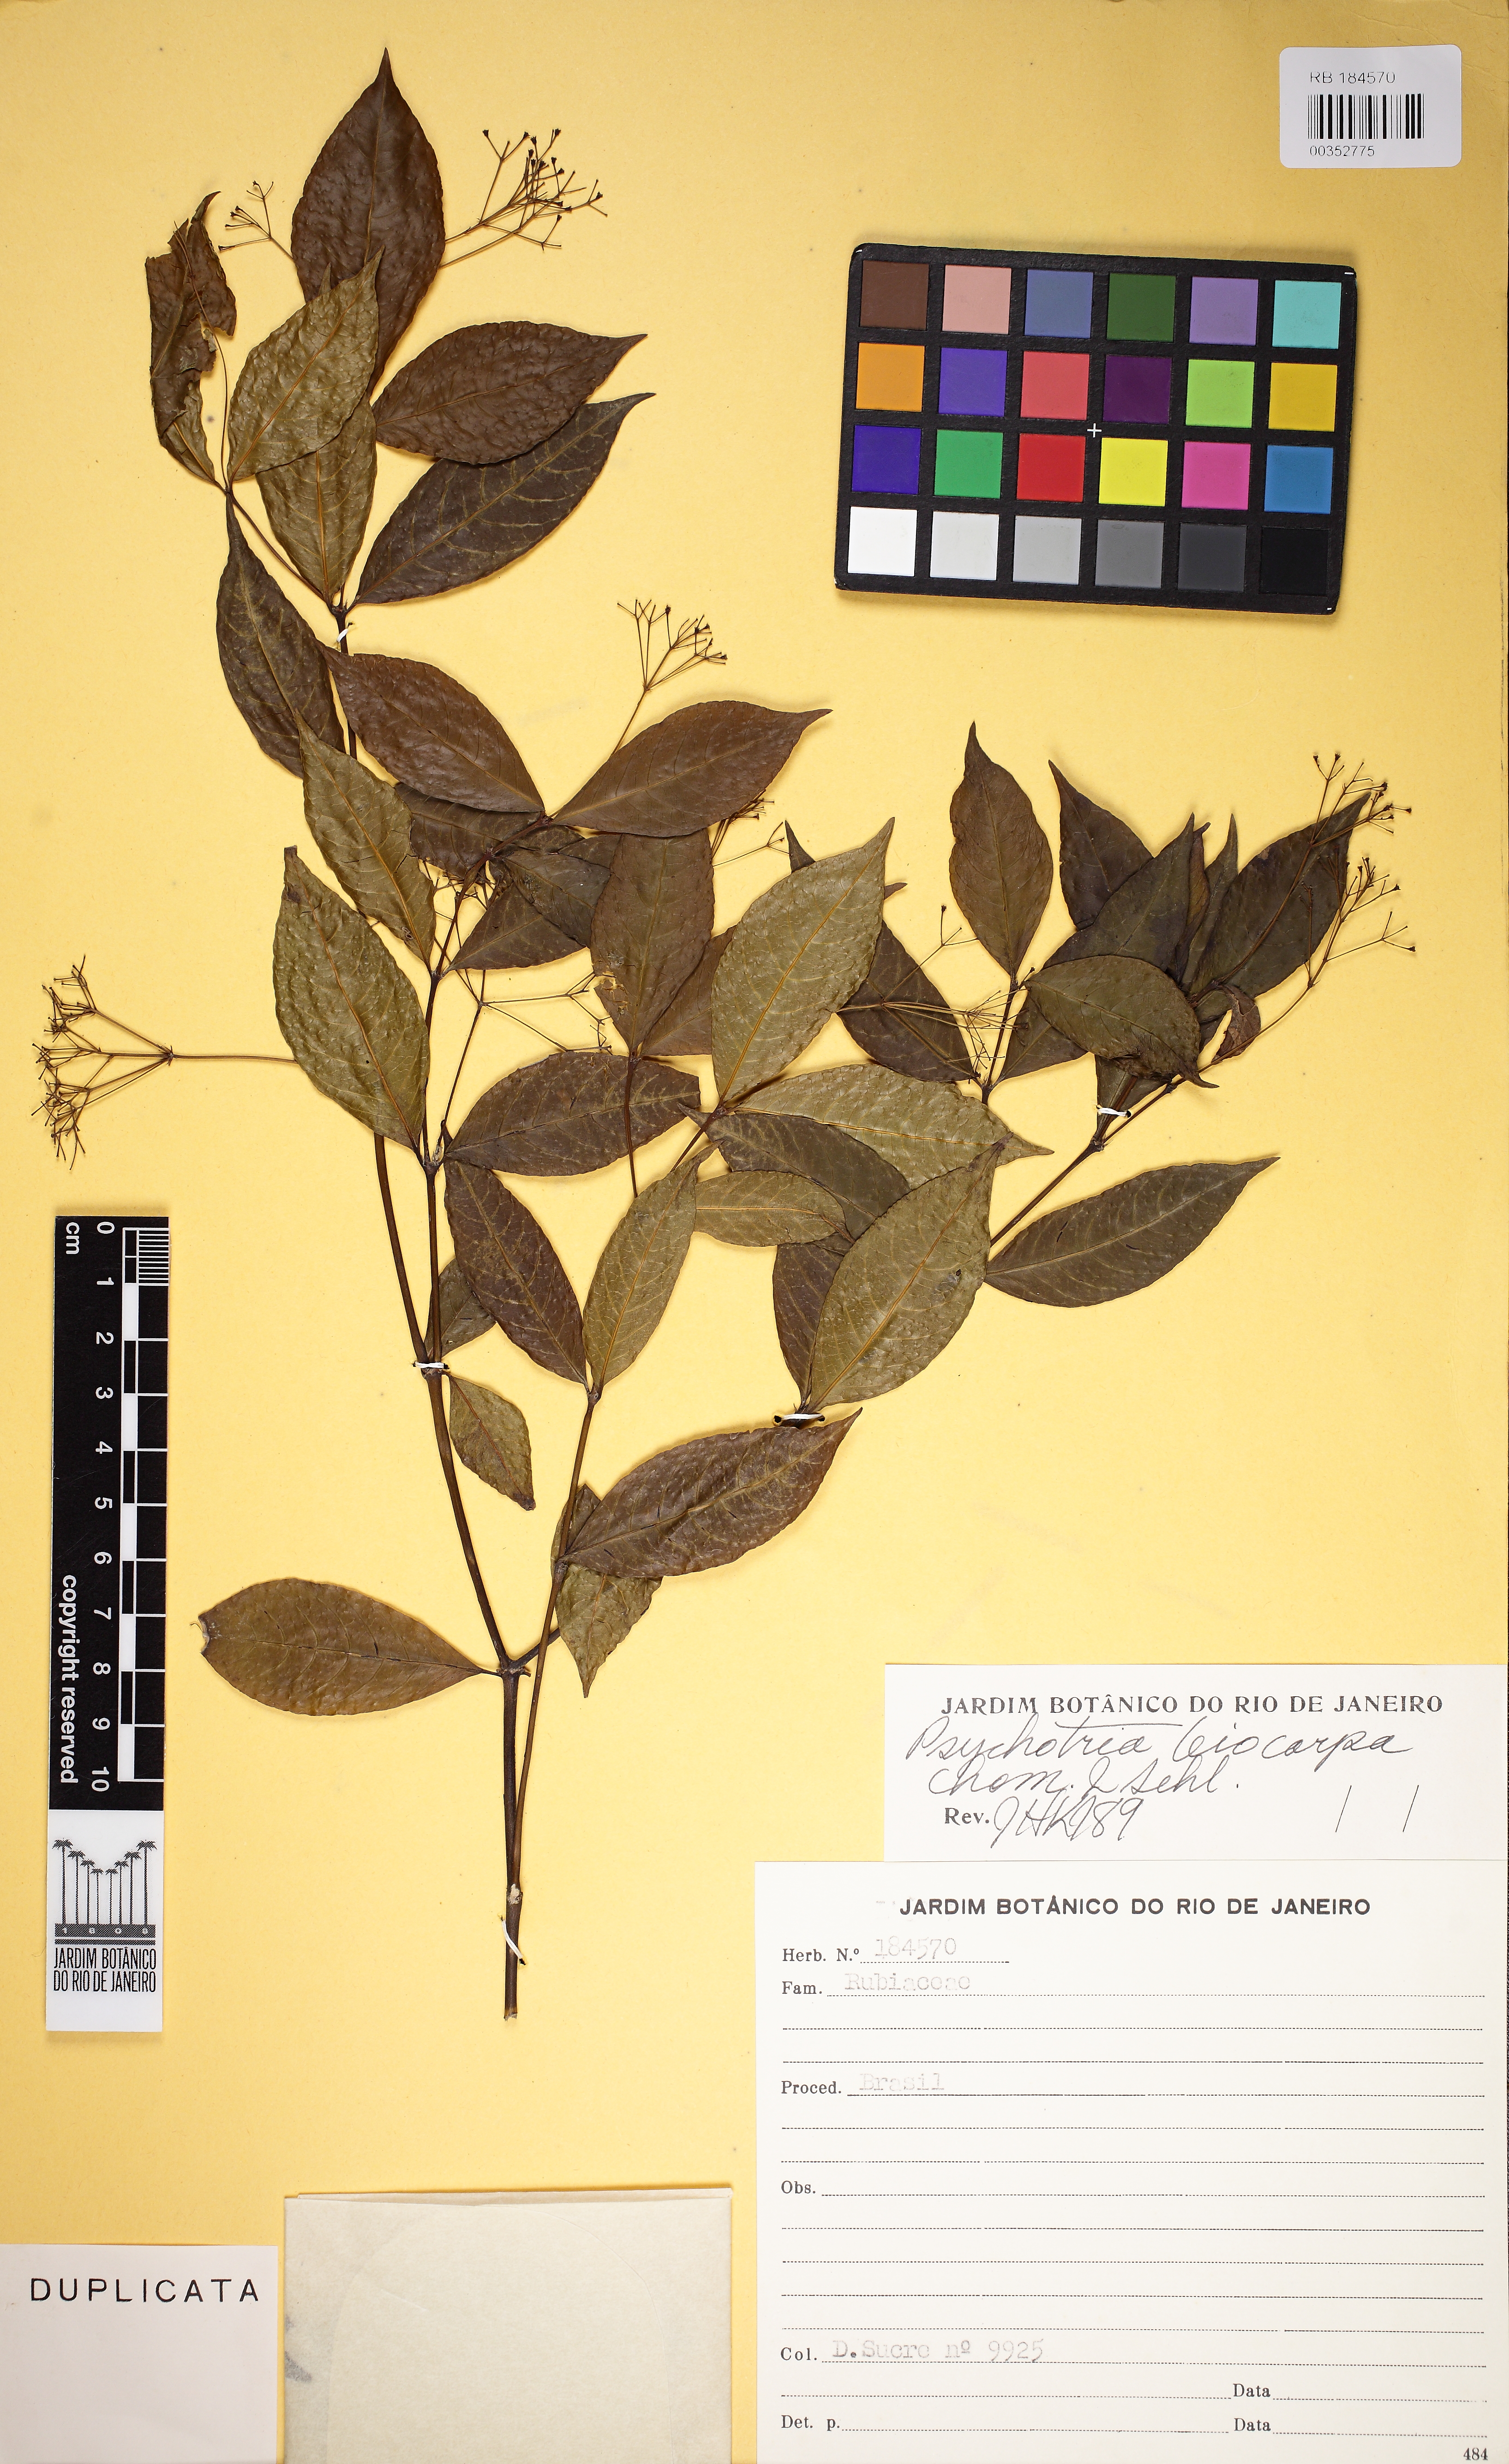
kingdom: Plantae
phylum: Tracheophyta
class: Magnoliopsida
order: Gentianales
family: Rubiaceae
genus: Psychotria
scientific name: Psychotria leiocarpa
